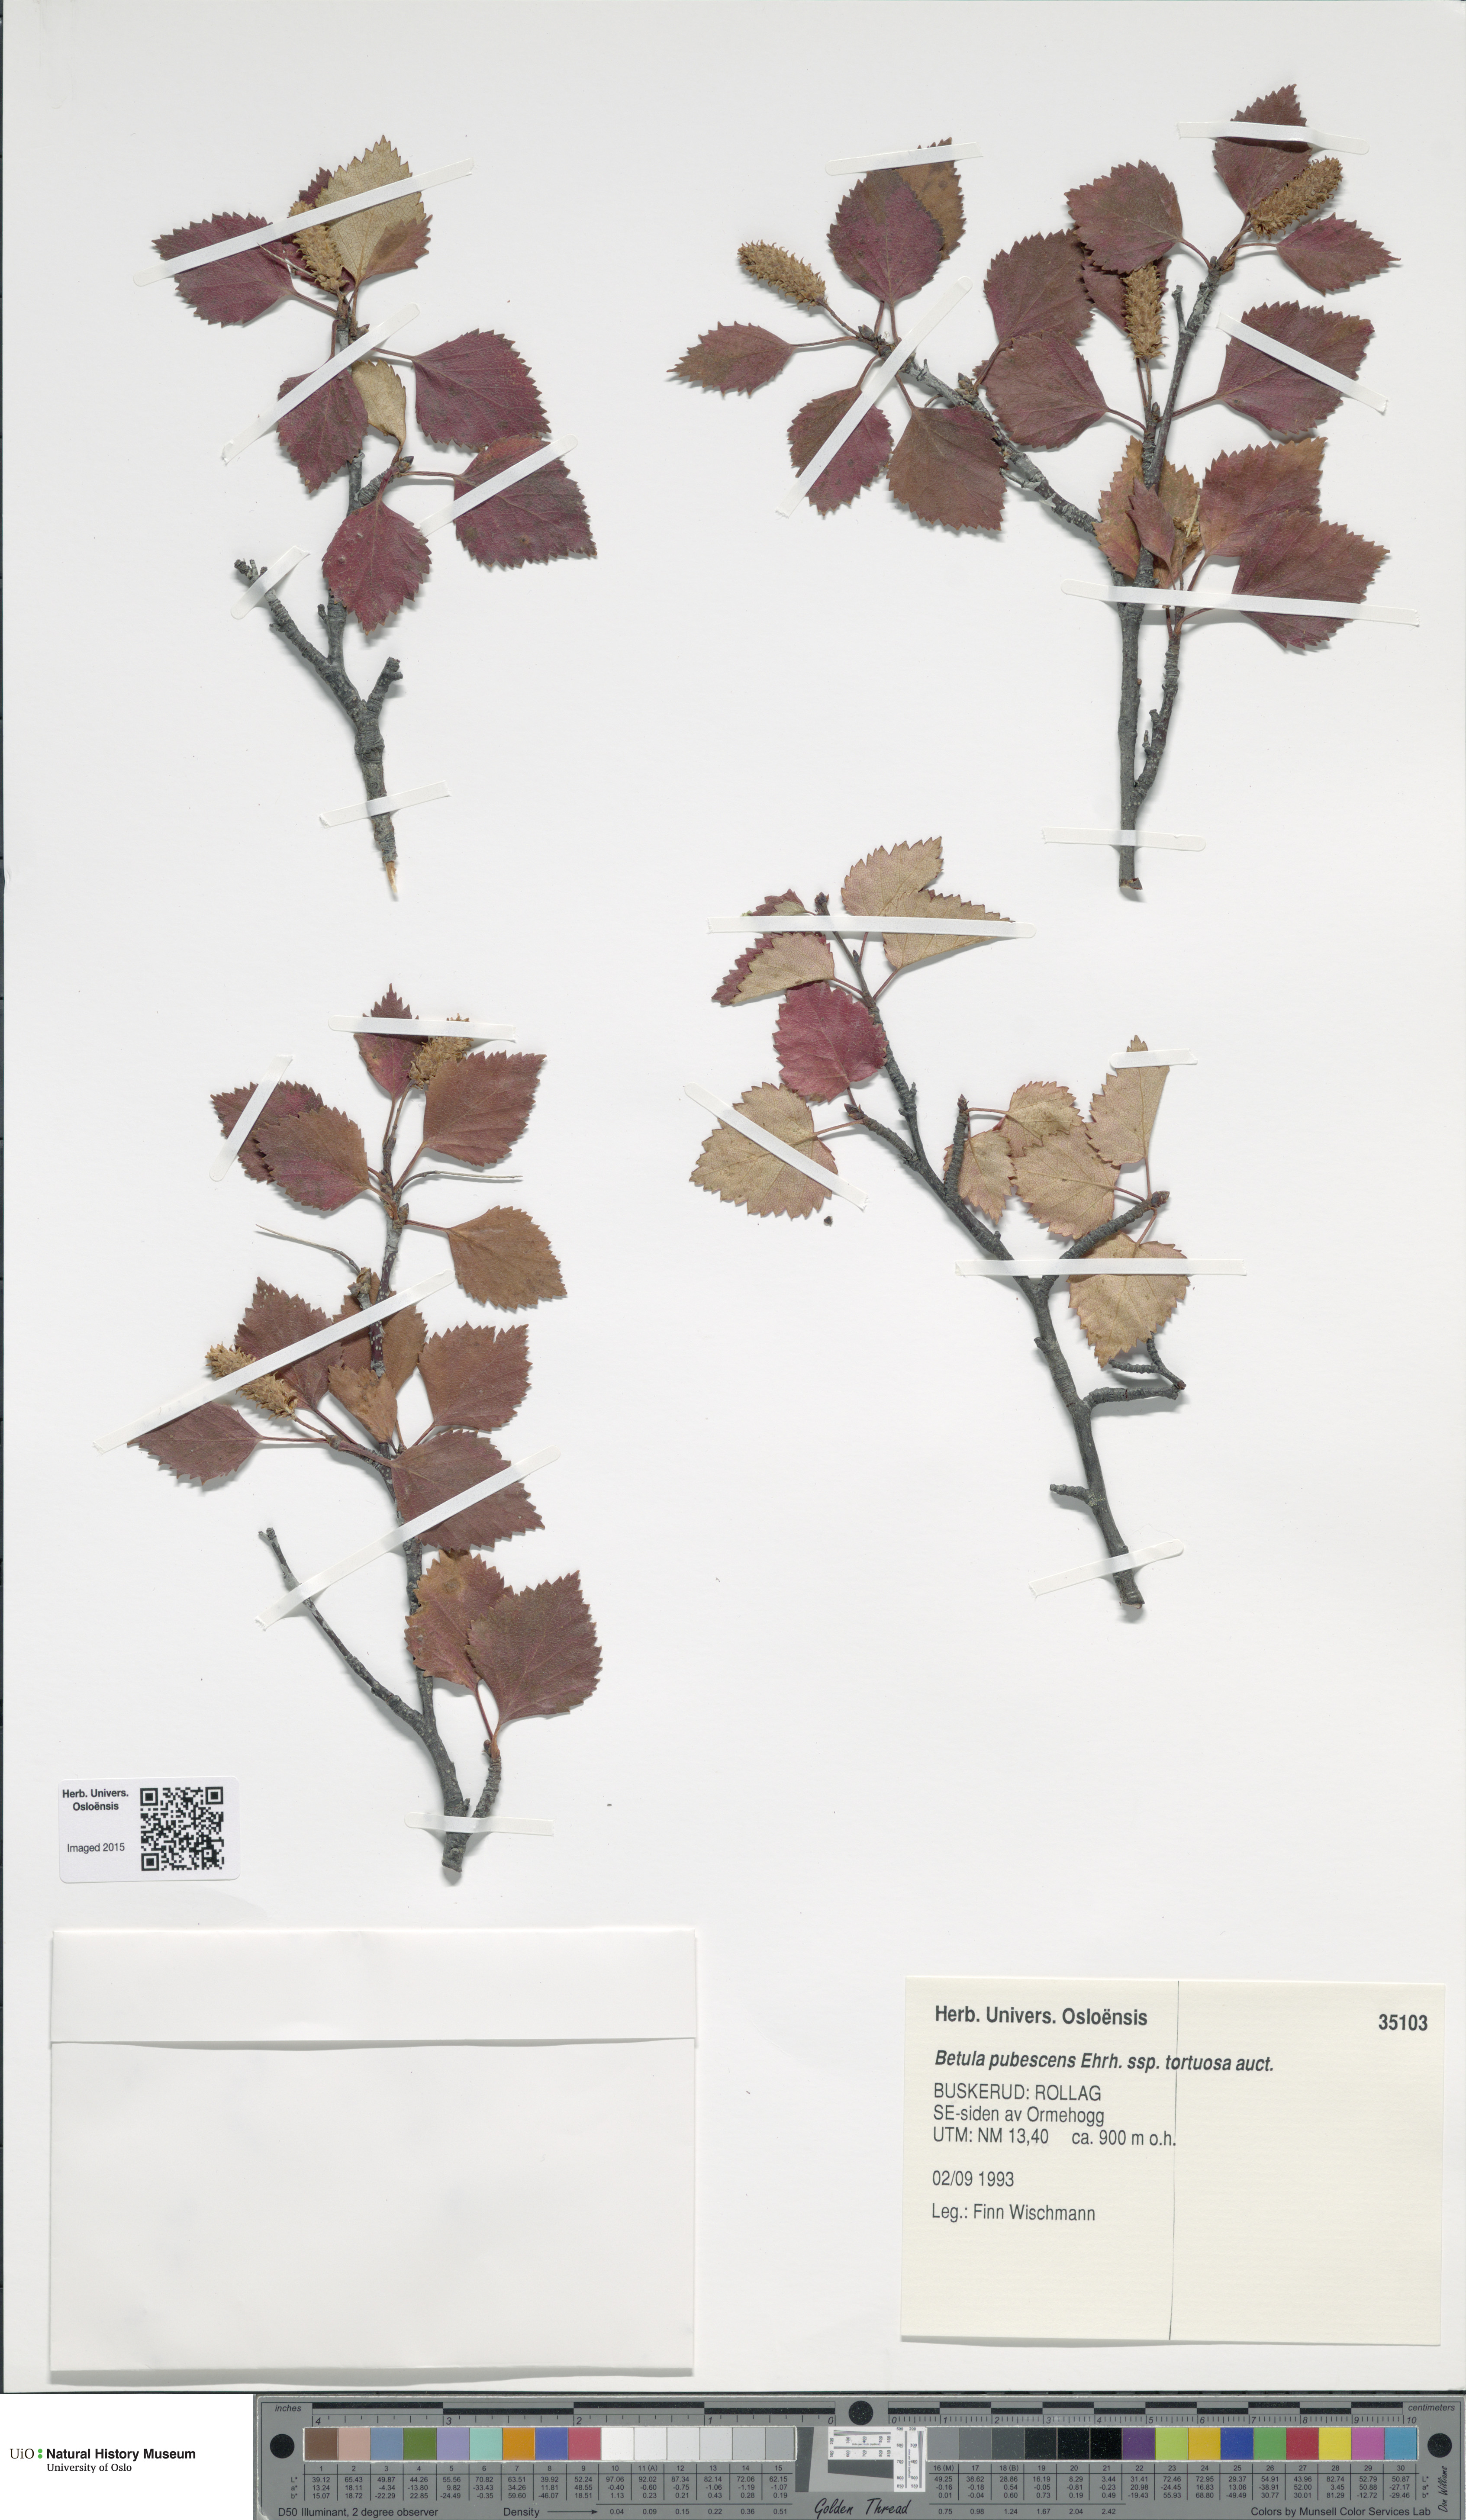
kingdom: Plantae
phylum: Tracheophyta
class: Magnoliopsida
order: Fagales
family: Betulaceae
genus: Betula
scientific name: Betula pubescens
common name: Downy birch
